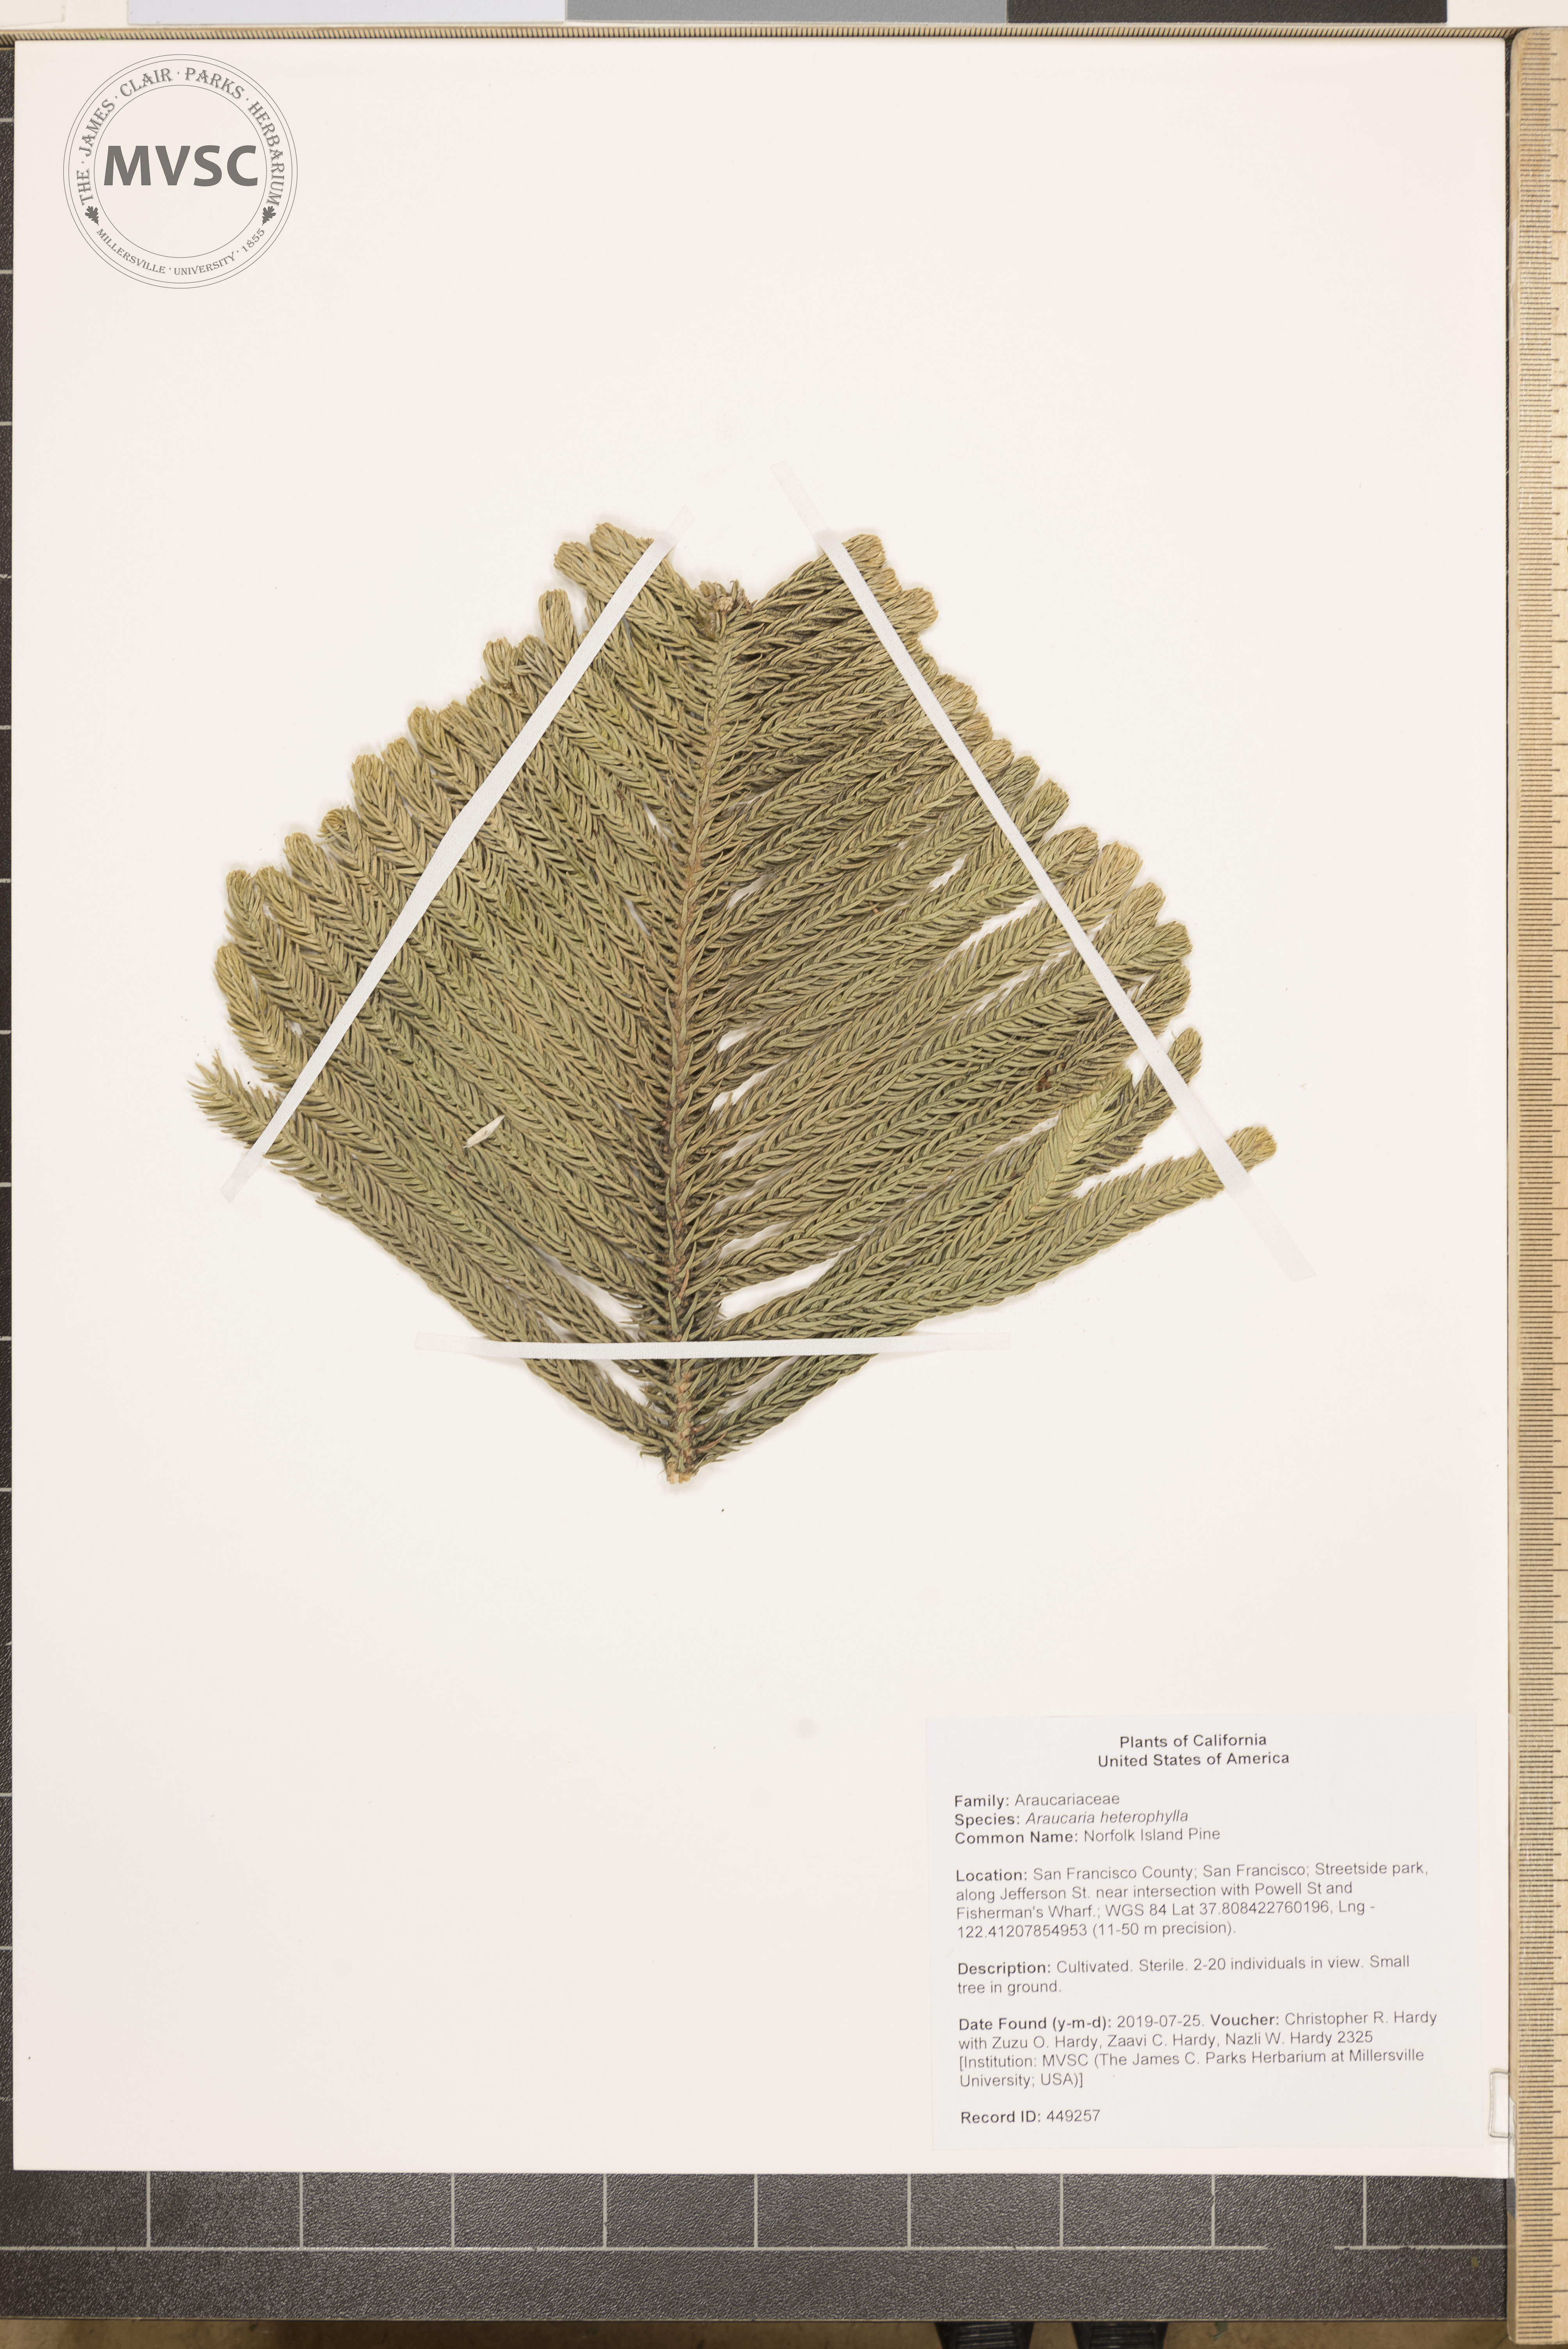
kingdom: Plantae
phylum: Tracheophyta
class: Pinopsida
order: Pinales
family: Araucariaceae
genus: Araucaria
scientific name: Araucaria heterophylla
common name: Norfolk Island Pine
